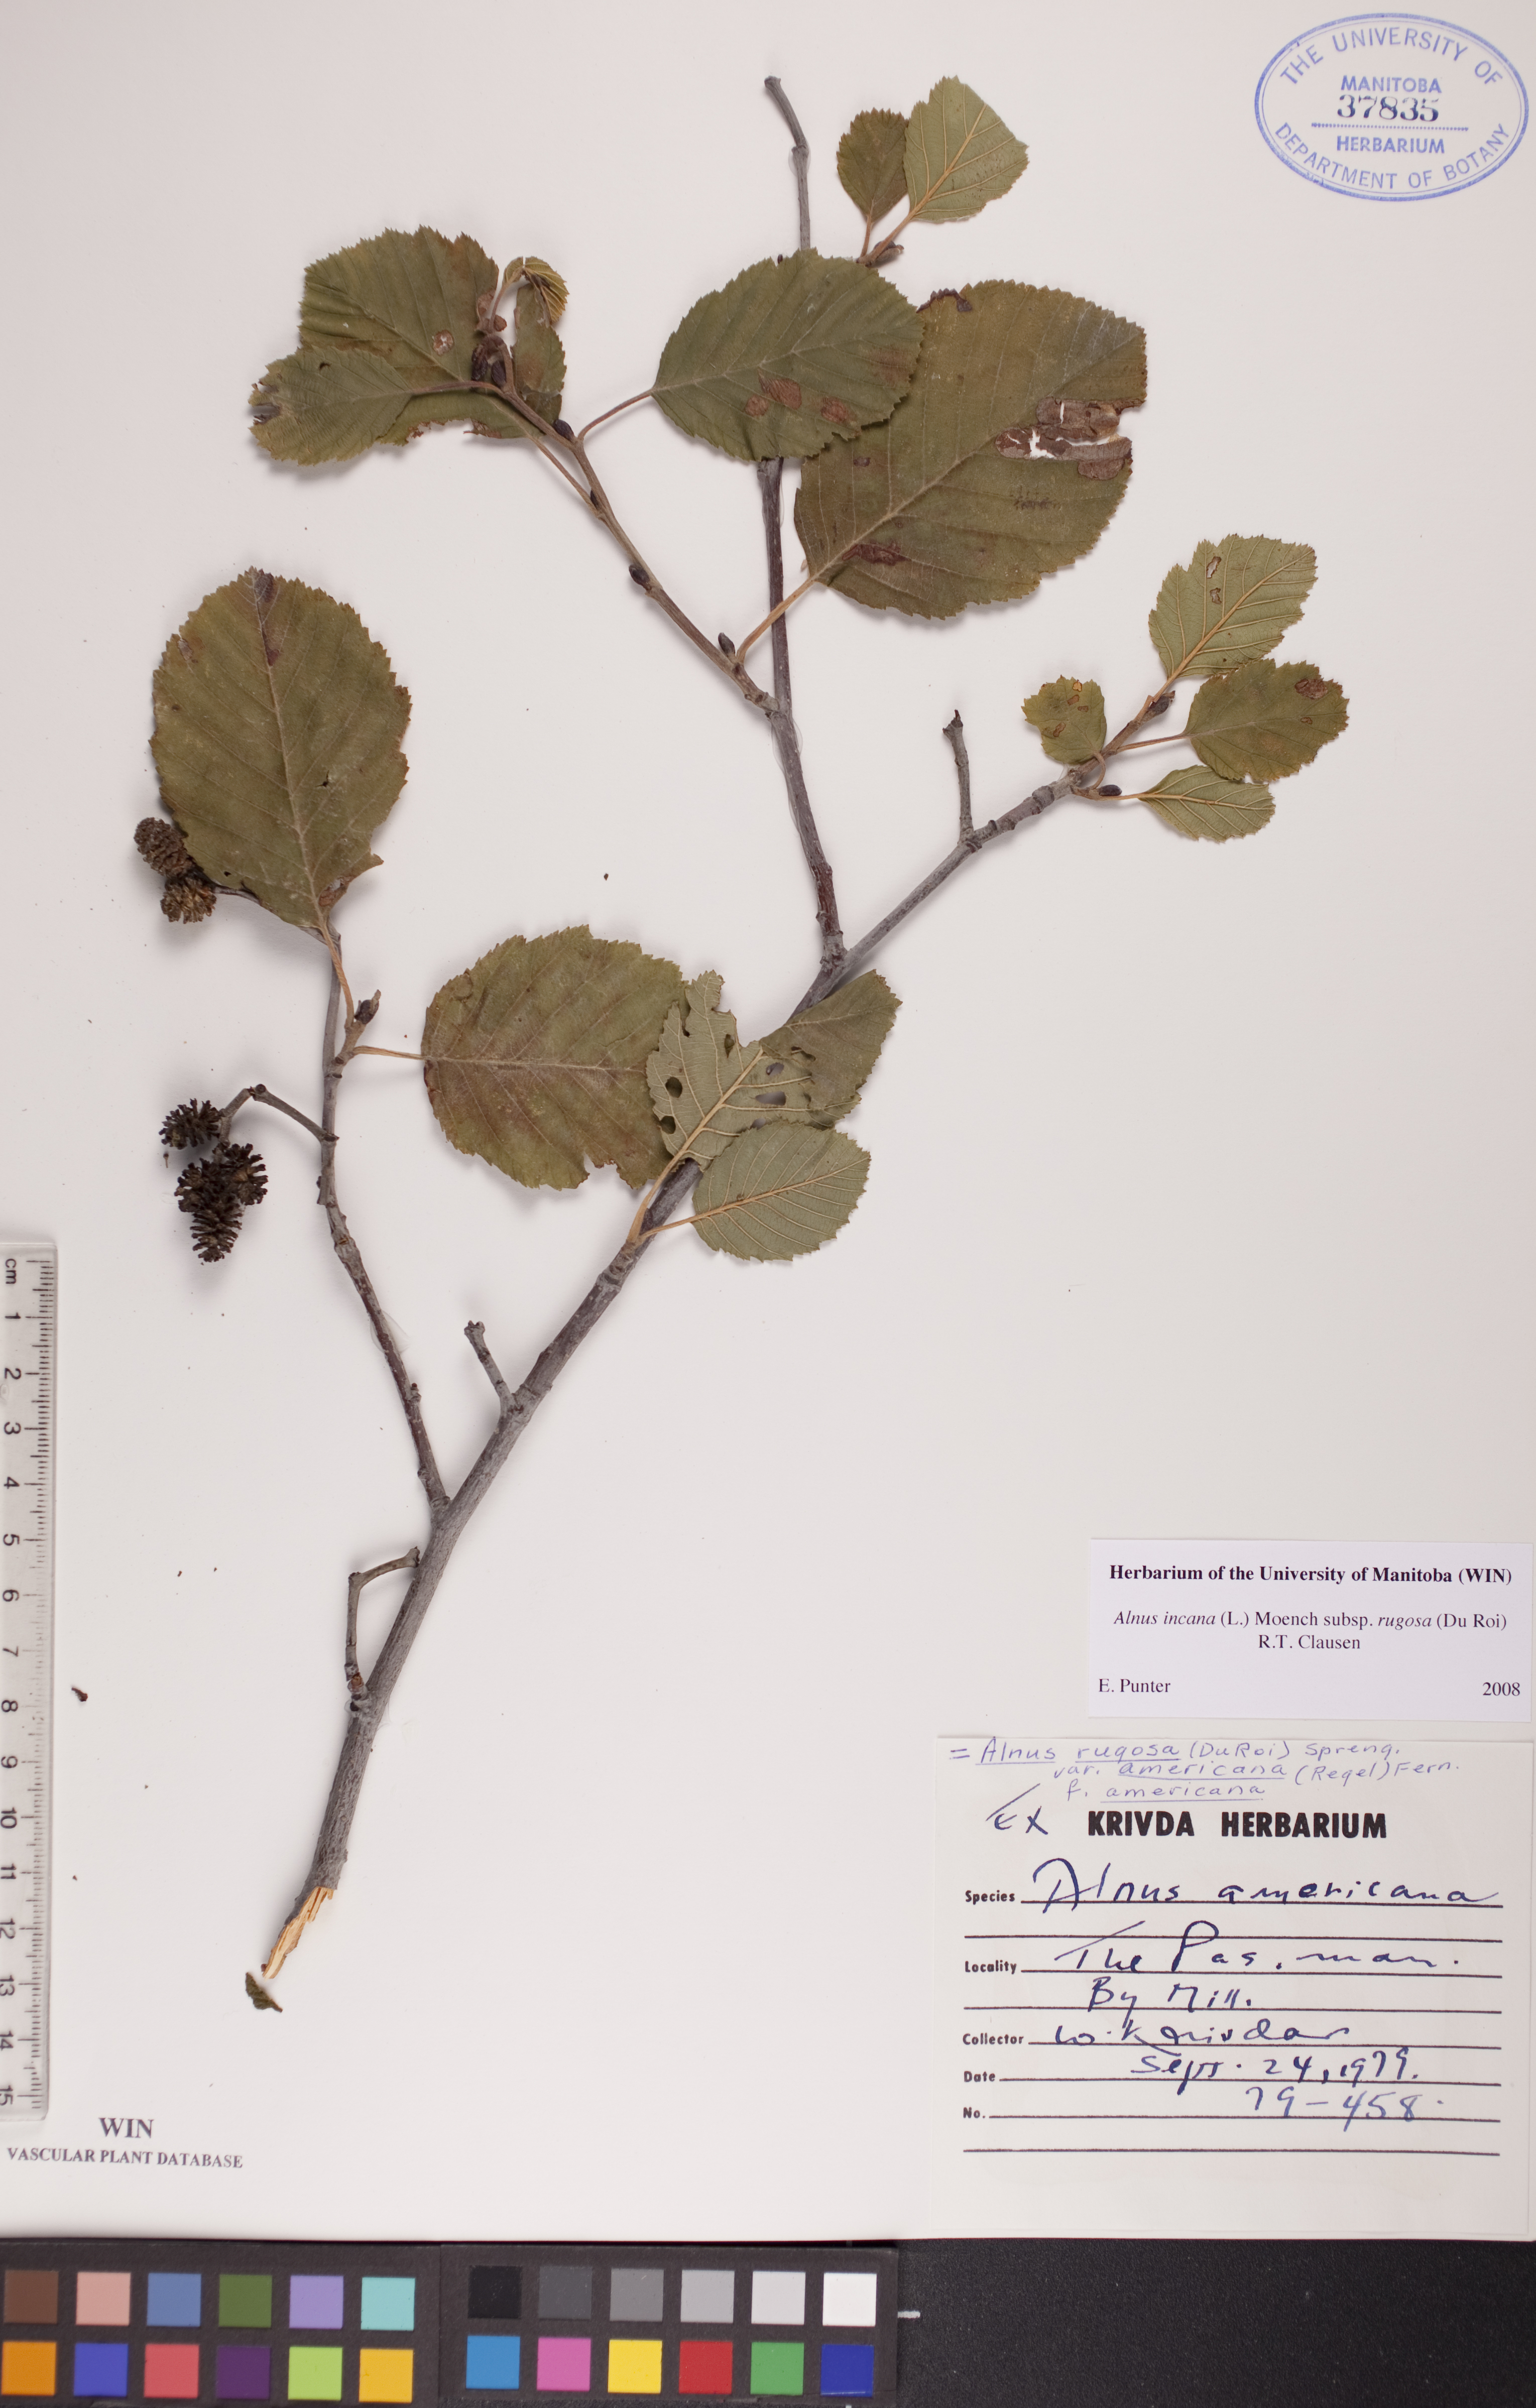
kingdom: Plantae
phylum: Tracheophyta
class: Magnoliopsida
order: Fagales
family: Betulaceae
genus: Alnus
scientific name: Alnus incana
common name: Grey alder
